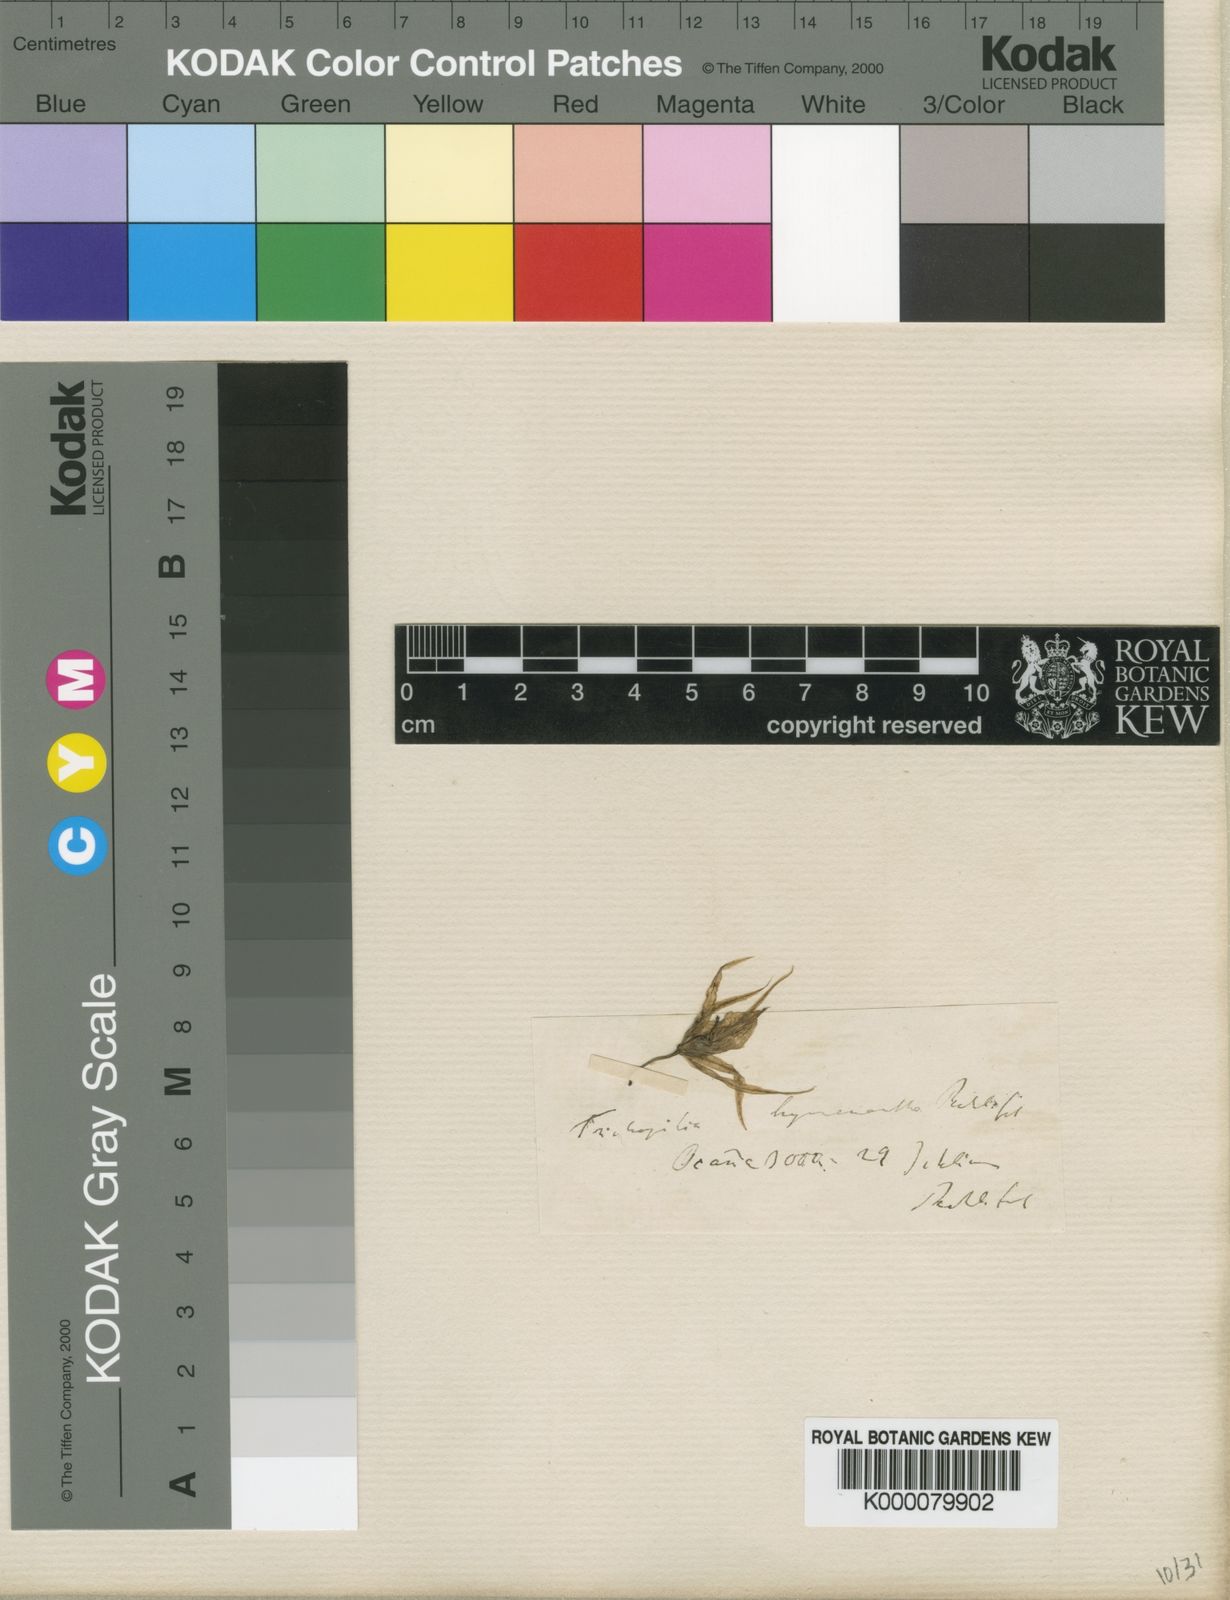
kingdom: Plantae
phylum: Tracheophyta
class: Liliopsida
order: Asparagales
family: Orchidaceae
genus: Trichopilia
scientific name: Trichopilia subulata
